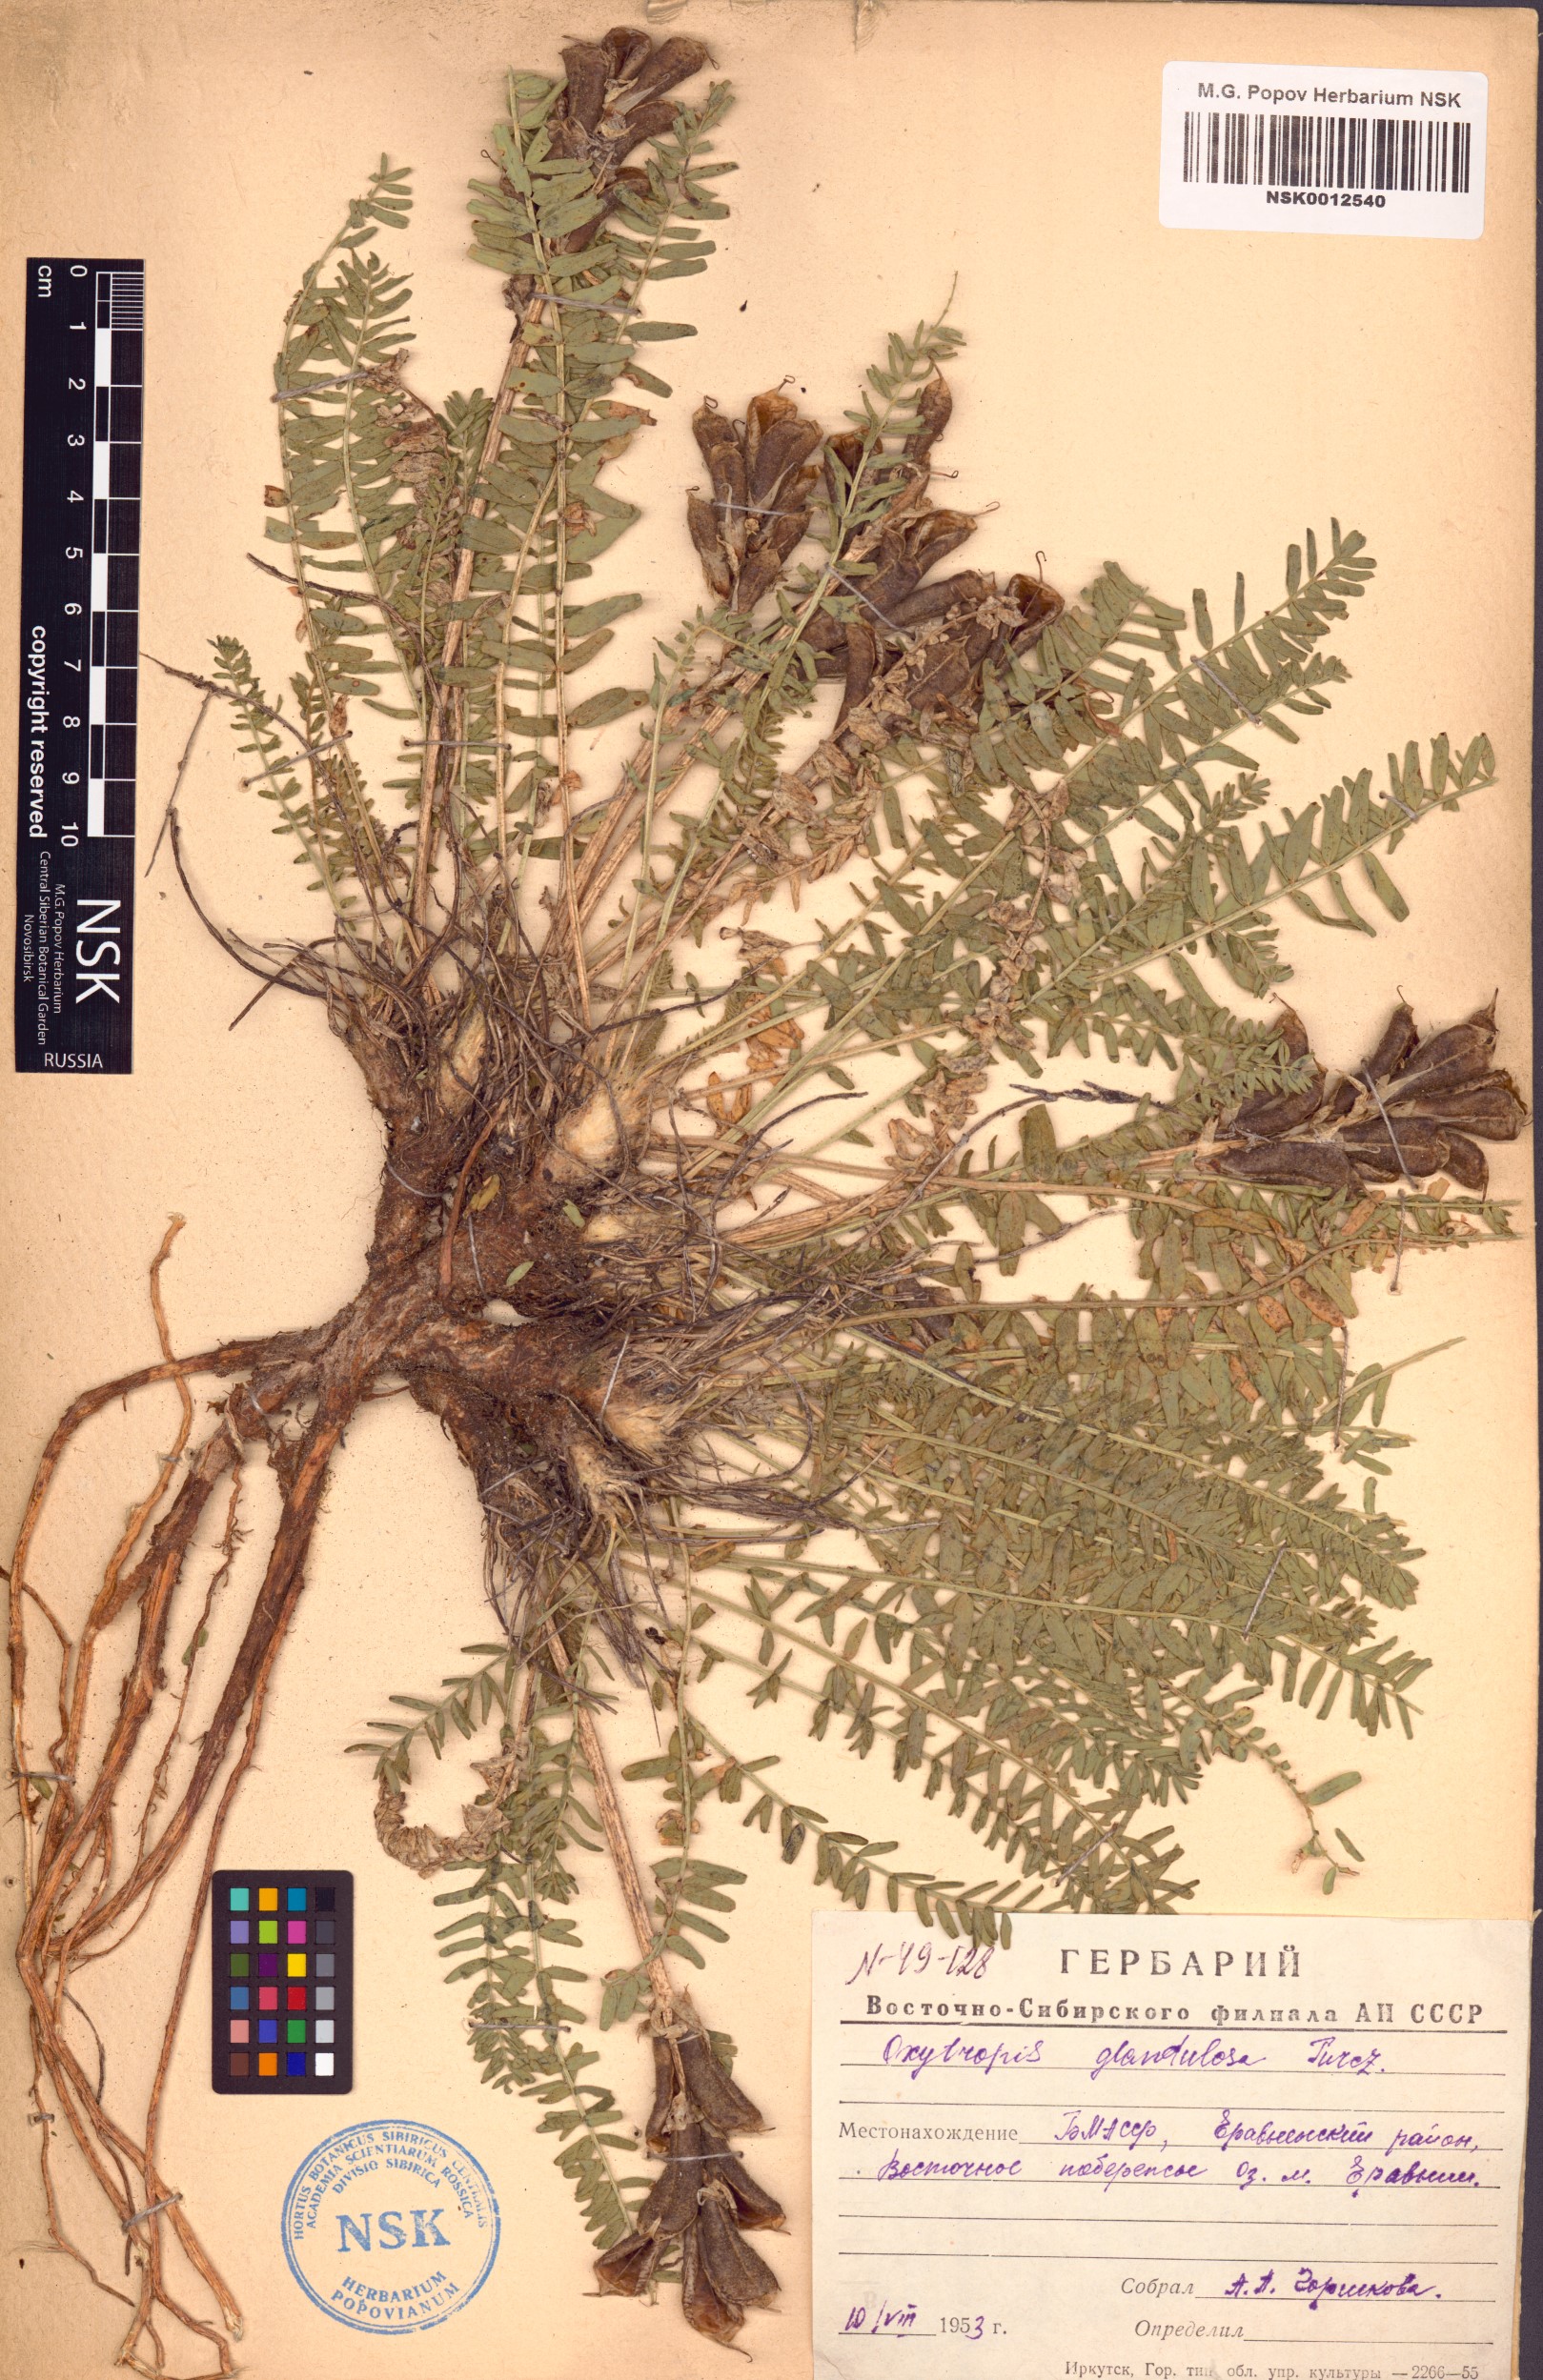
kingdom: Plantae
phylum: Tracheophyta
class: Magnoliopsida
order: Fabales
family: Fabaceae
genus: Oxytropis
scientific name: Oxytropis glandulosa
